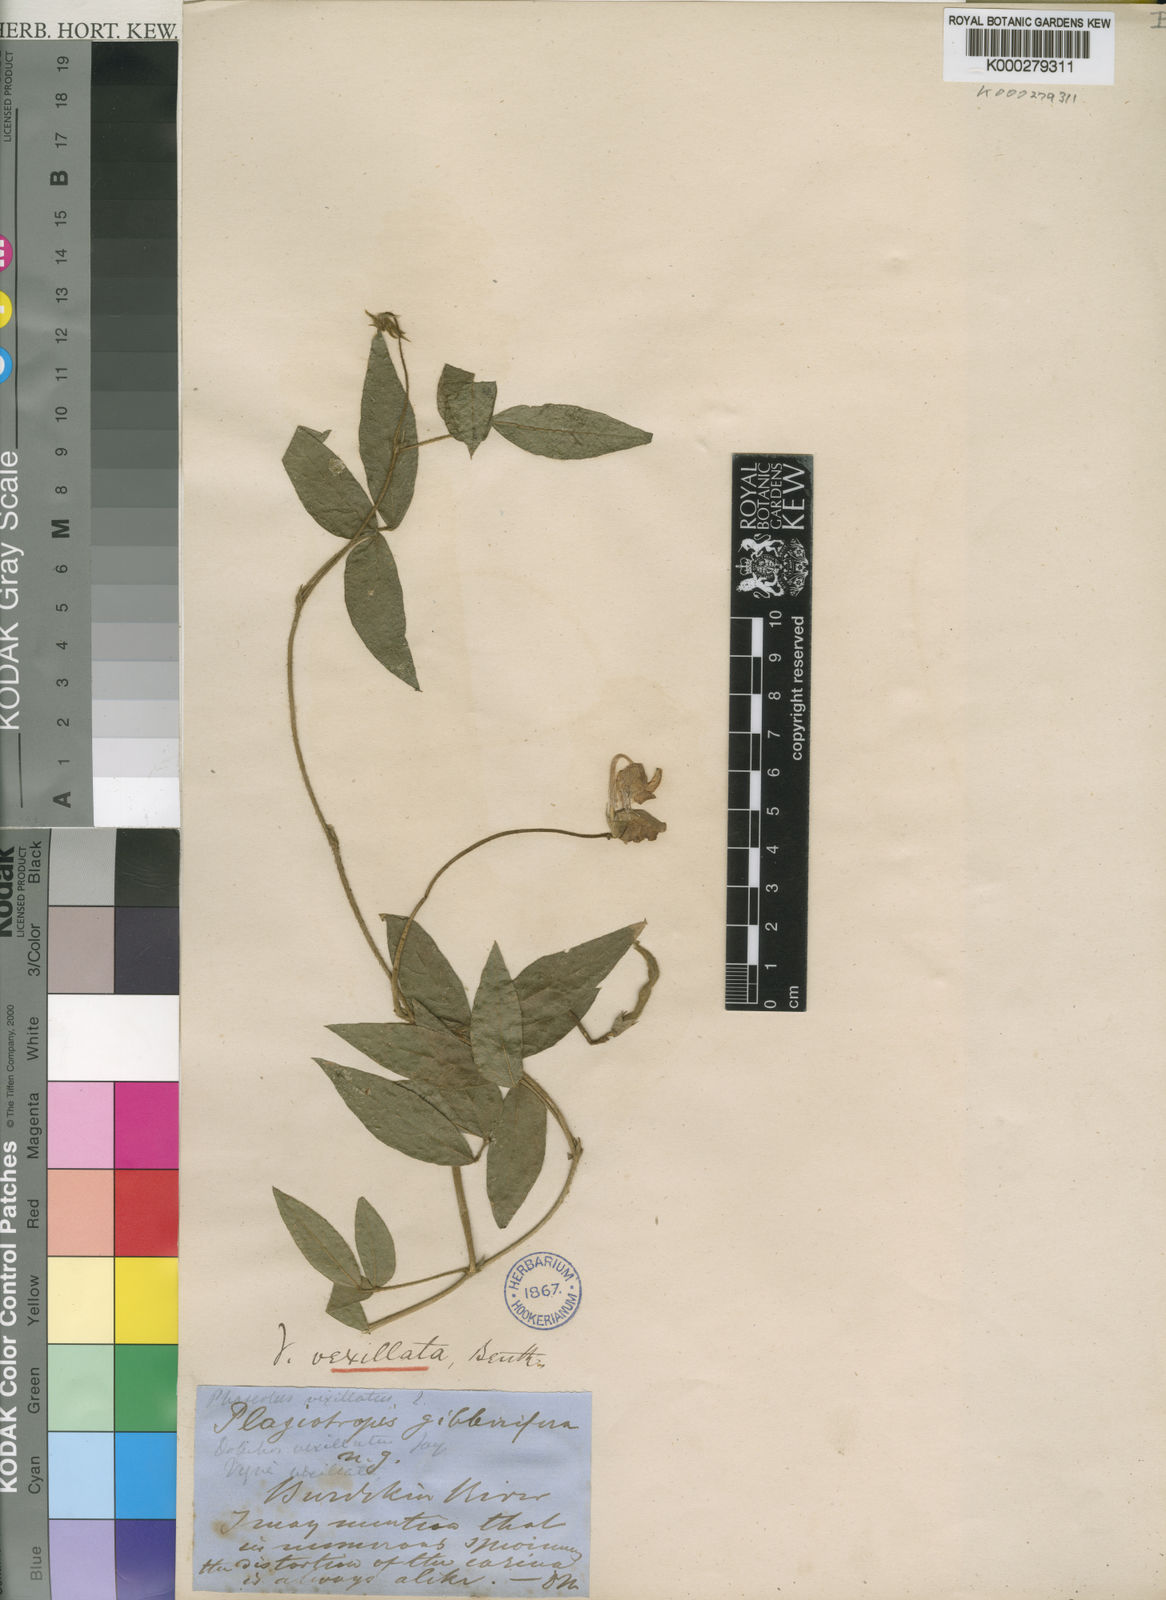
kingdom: Plantae
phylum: Tracheophyta
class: Magnoliopsida
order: Fabales
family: Fabaceae
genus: Vigna
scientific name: Vigna vexillata
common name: Zombi pea
